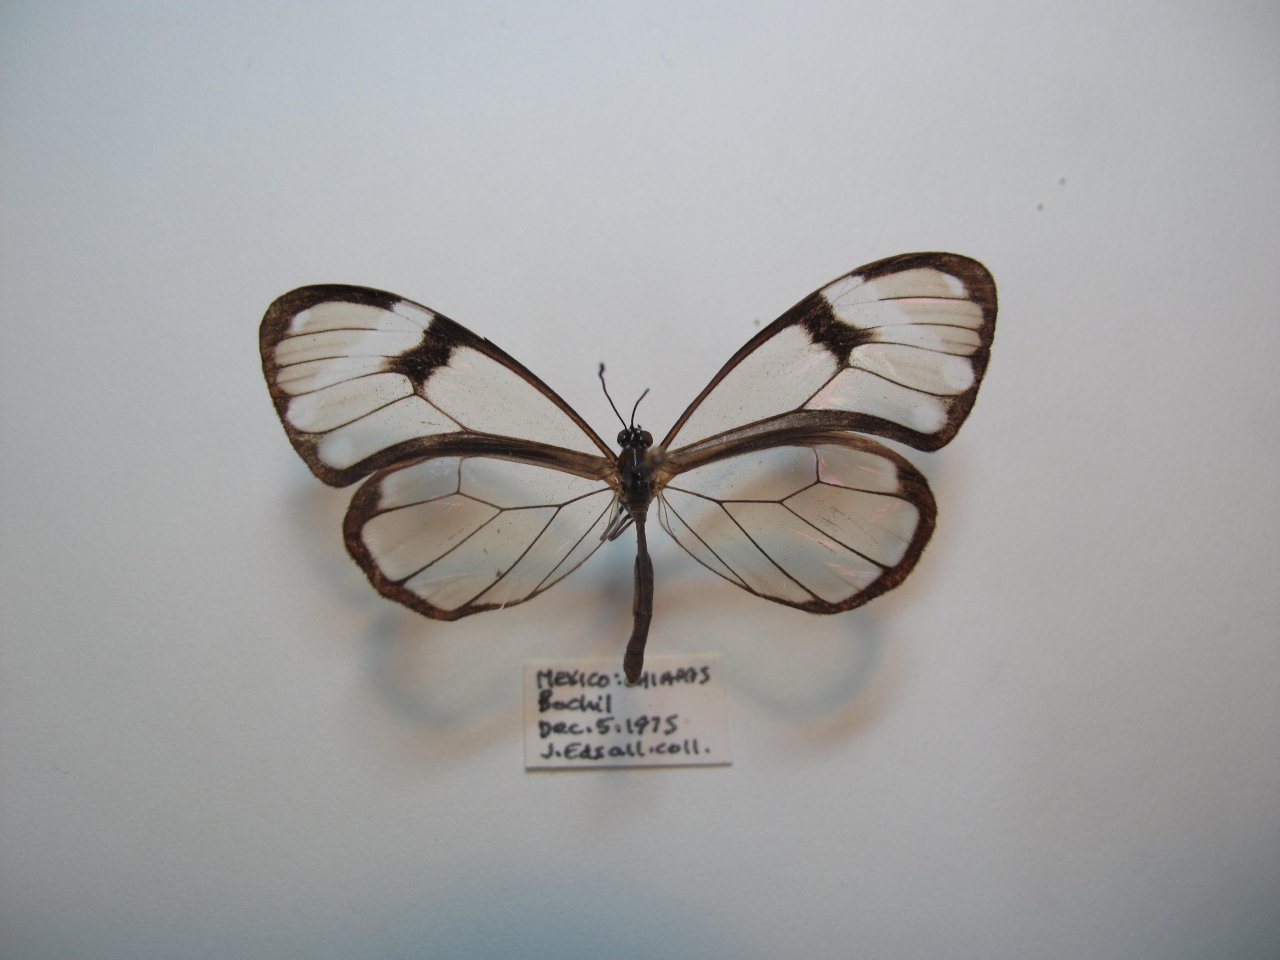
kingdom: Animalia
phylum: Arthropoda
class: Insecta
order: Lepidoptera
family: Nymphalidae
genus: Godyris
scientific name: Godyris nero
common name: Nero Clearwing
